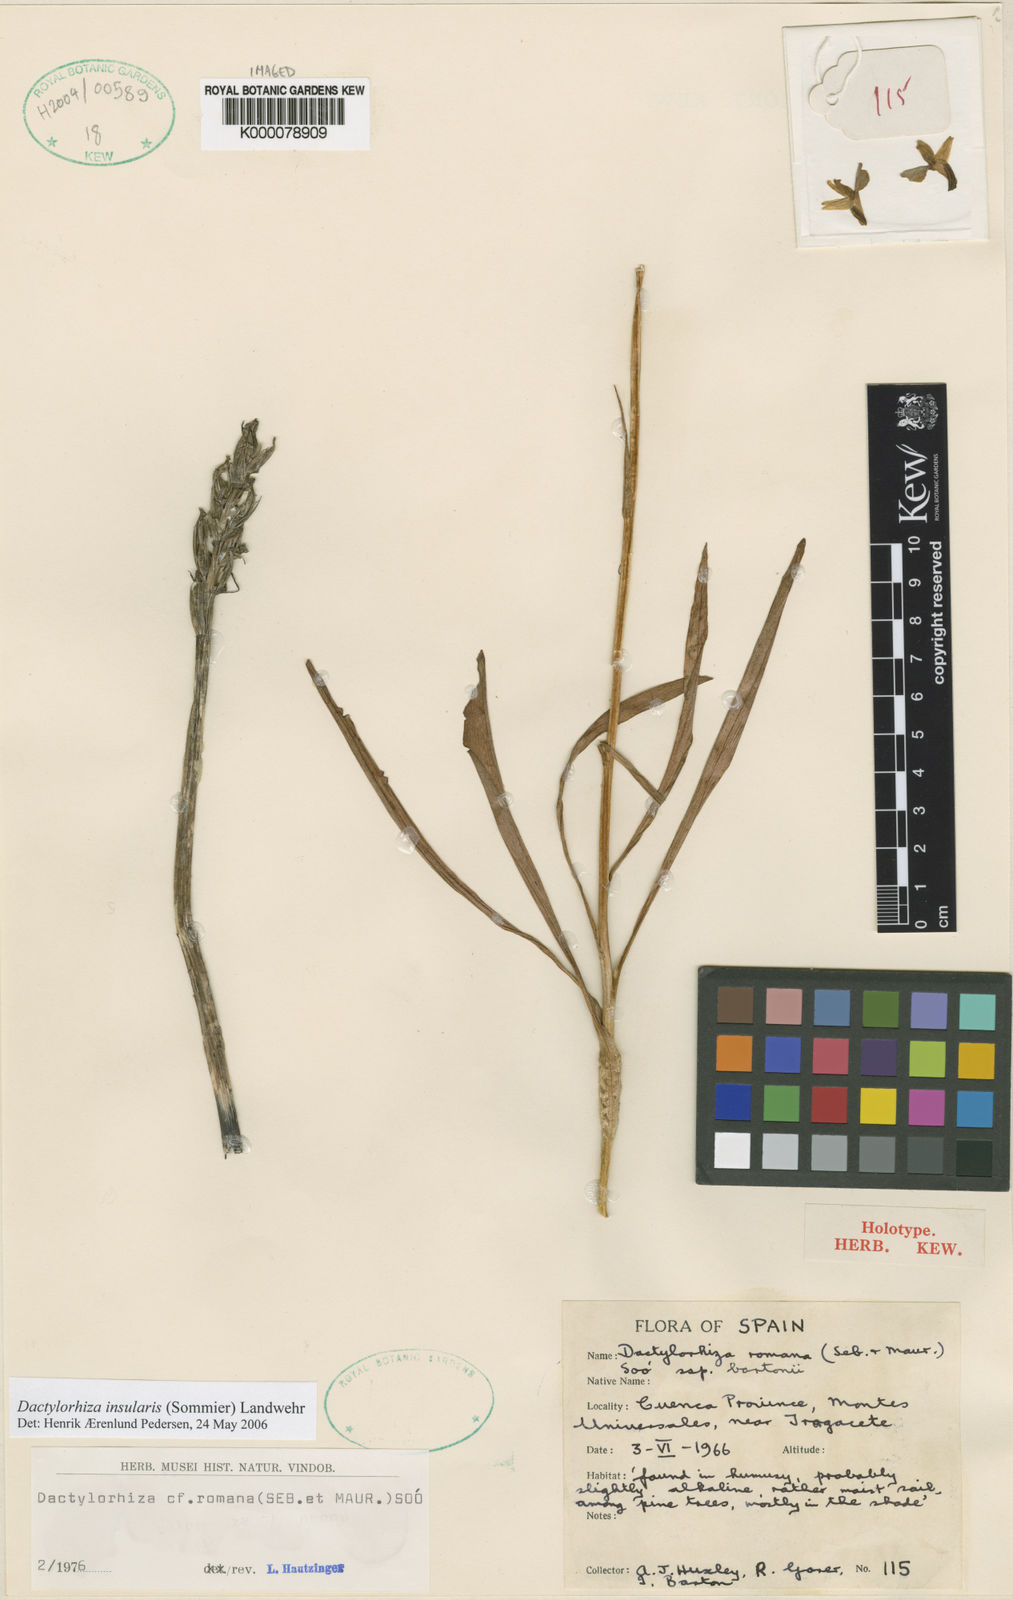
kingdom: Plantae
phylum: Tracheophyta
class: Liliopsida
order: Asparagales
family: Orchidaceae
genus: Dactylorhiza
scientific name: Dactylorhiza
